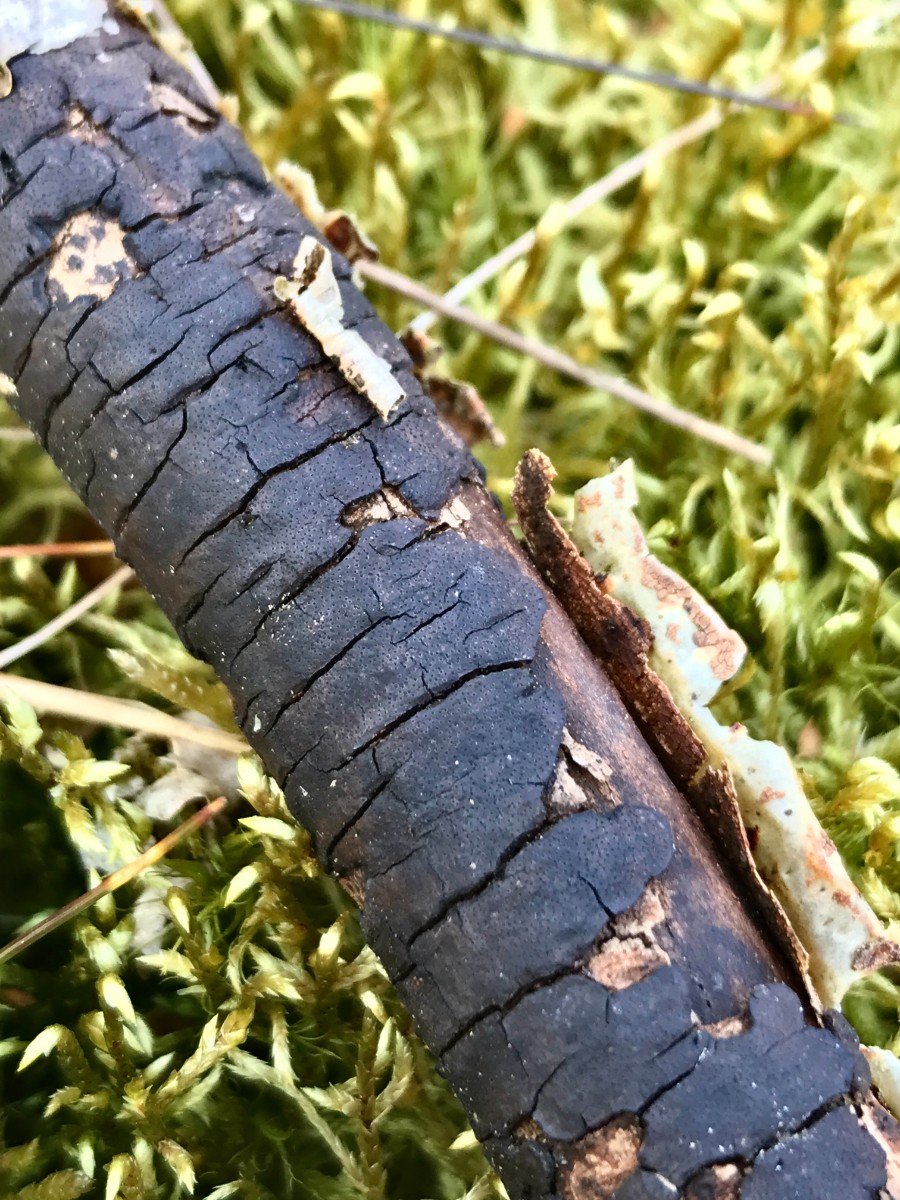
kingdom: Fungi
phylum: Ascomycota
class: Sordariomycetes
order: Xylariales
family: Diatrypaceae
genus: Diatrype
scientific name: Diatrype
